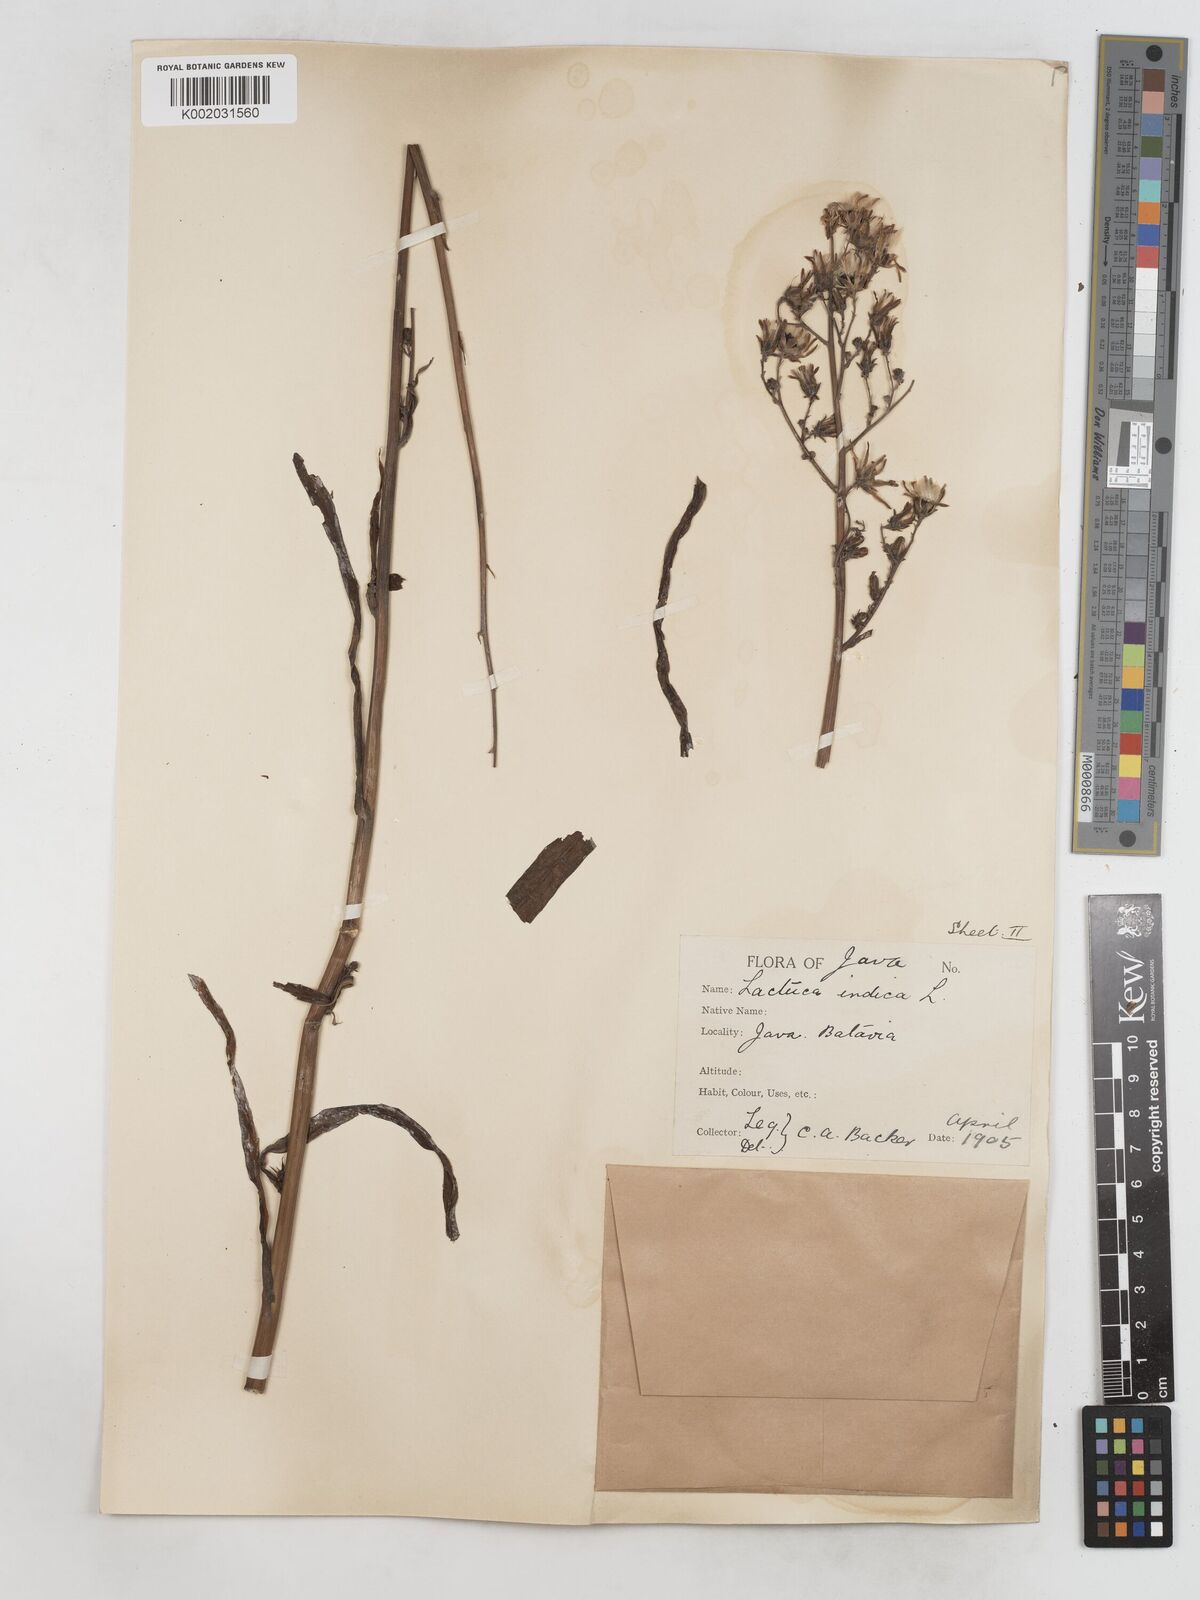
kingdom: Plantae
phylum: Tracheophyta
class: Magnoliopsida
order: Asterales
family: Asteraceae
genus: Lactuca
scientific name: Lactuca indica
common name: Wild lettuce
